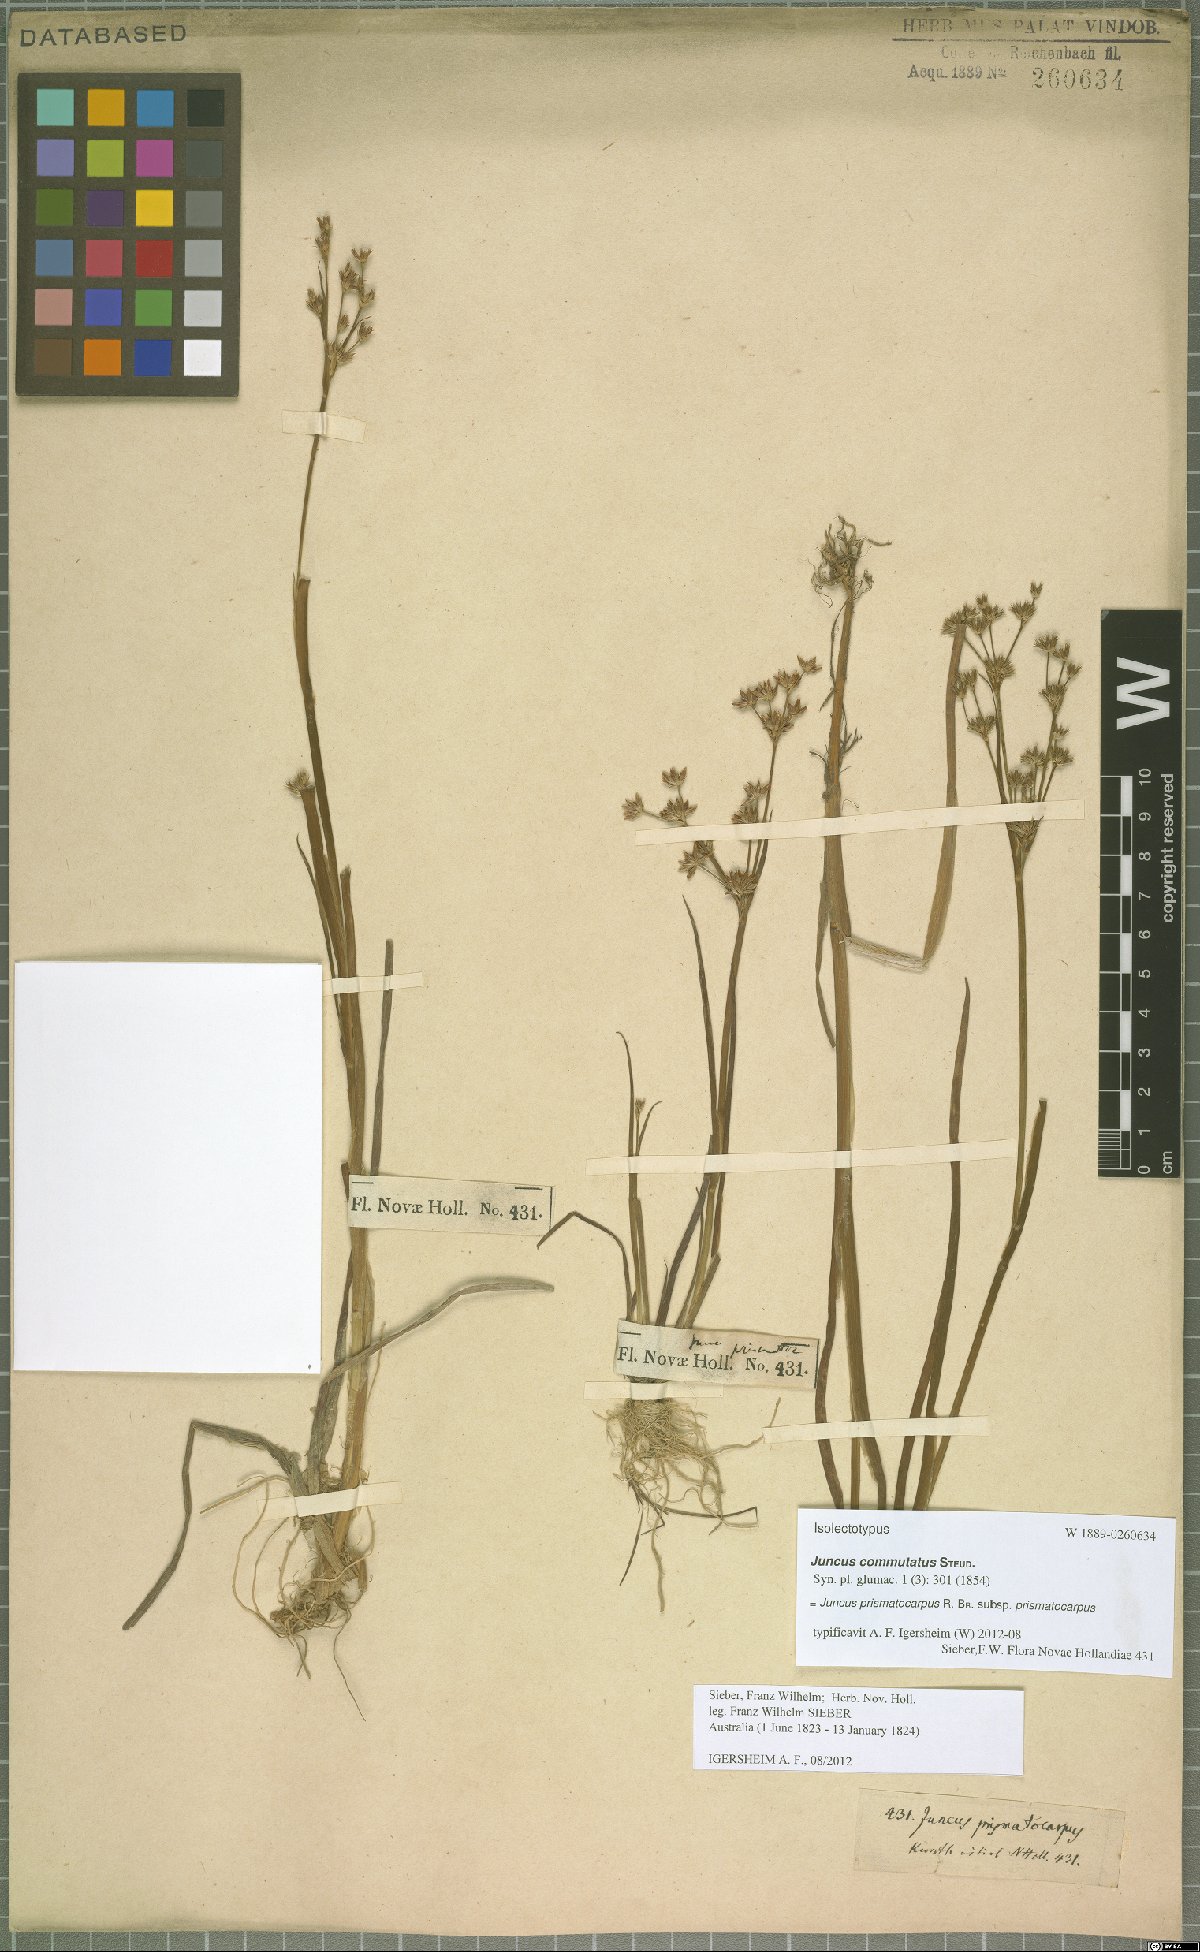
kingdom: Plantae
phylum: Tracheophyta
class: Liliopsida
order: Poales
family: Juncaceae
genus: Juncus
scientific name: Juncus prismatocarpus
